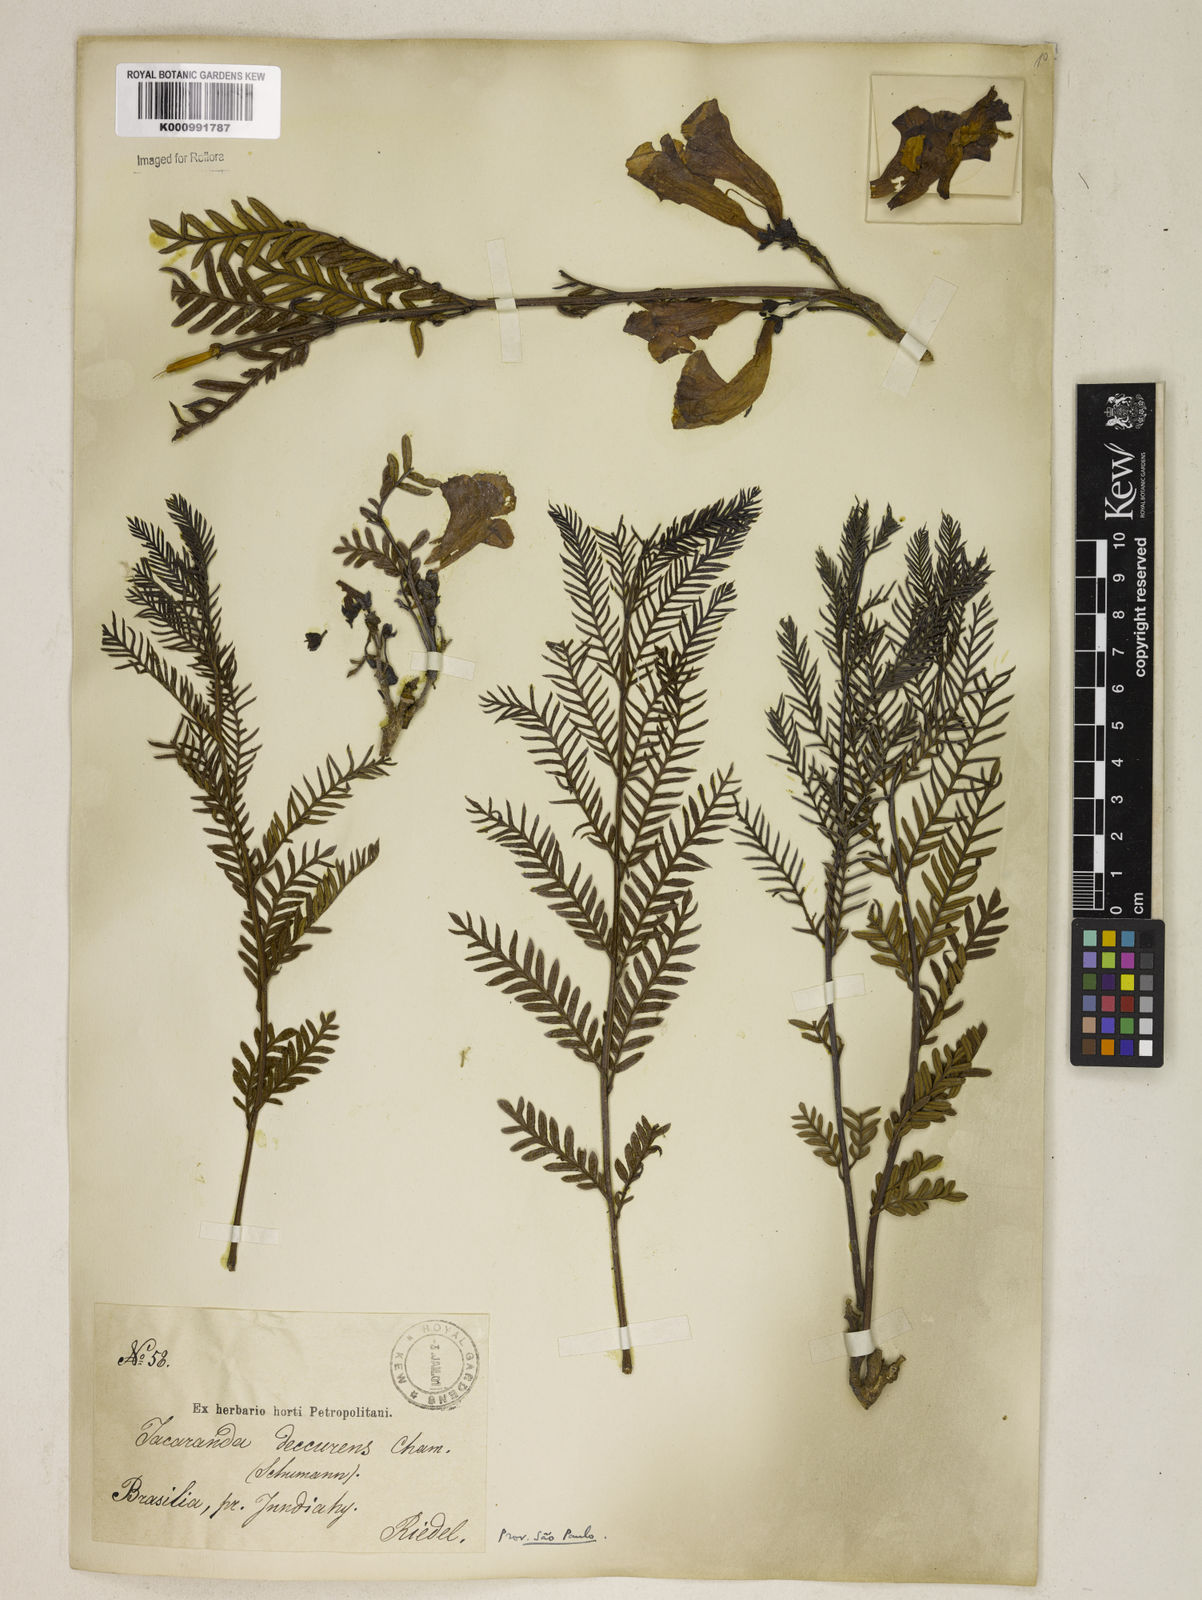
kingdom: Plantae
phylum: Tracheophyta
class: Magnoliopsida
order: Lamiales
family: Bignoniaceae
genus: Jacaranda
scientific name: Jacaranda decurrens
